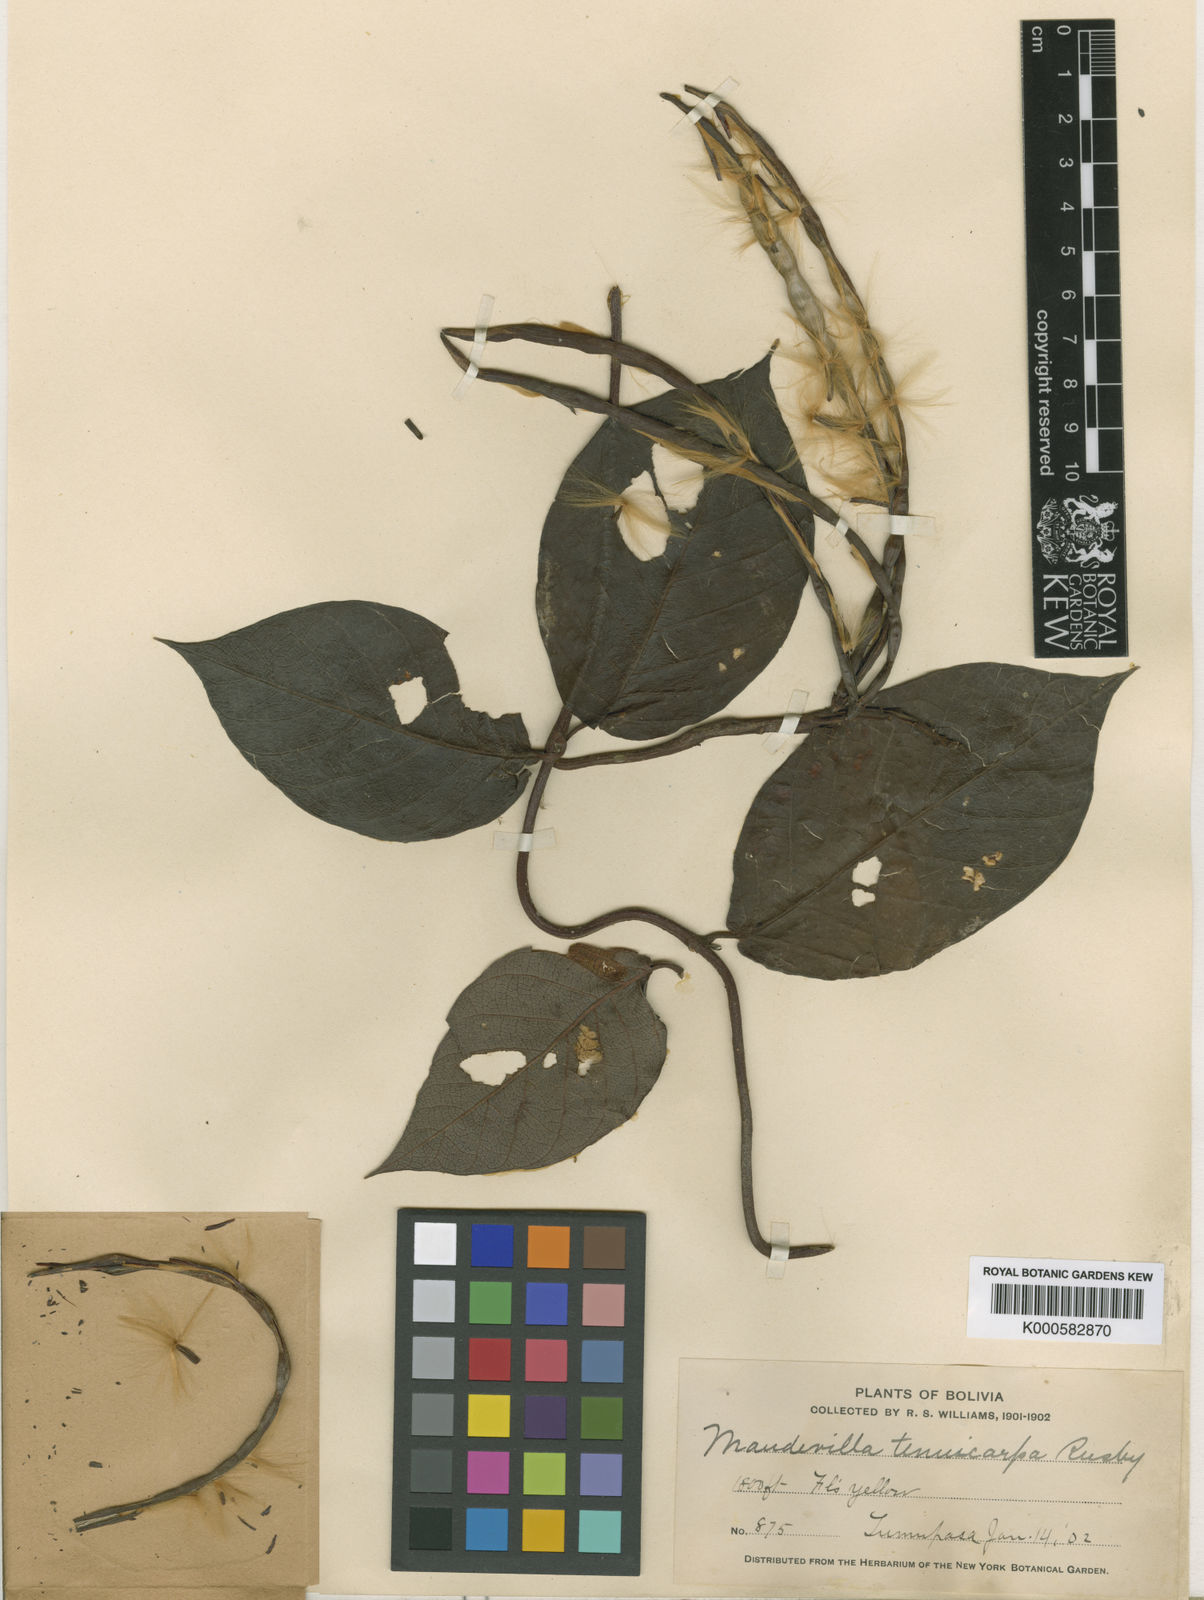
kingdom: Plantae
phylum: Tracheophyta
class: Magnoliopsida
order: Gentianales
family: Apocynaceae
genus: Mandevilla
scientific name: Mandevilla rugellosa
